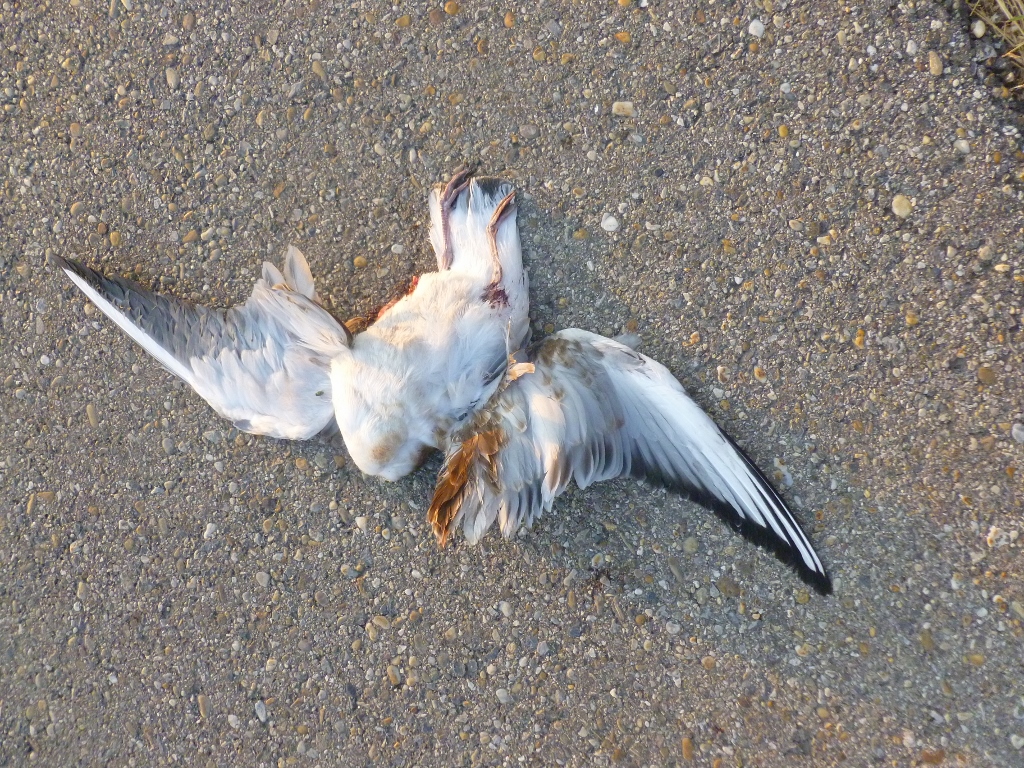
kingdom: Animalia
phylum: Chordata
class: Aves
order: Charadriiformes
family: Laridae
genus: Chroicocephalus
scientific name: Chroicocephalus ridibundus
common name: Black-headed gull
